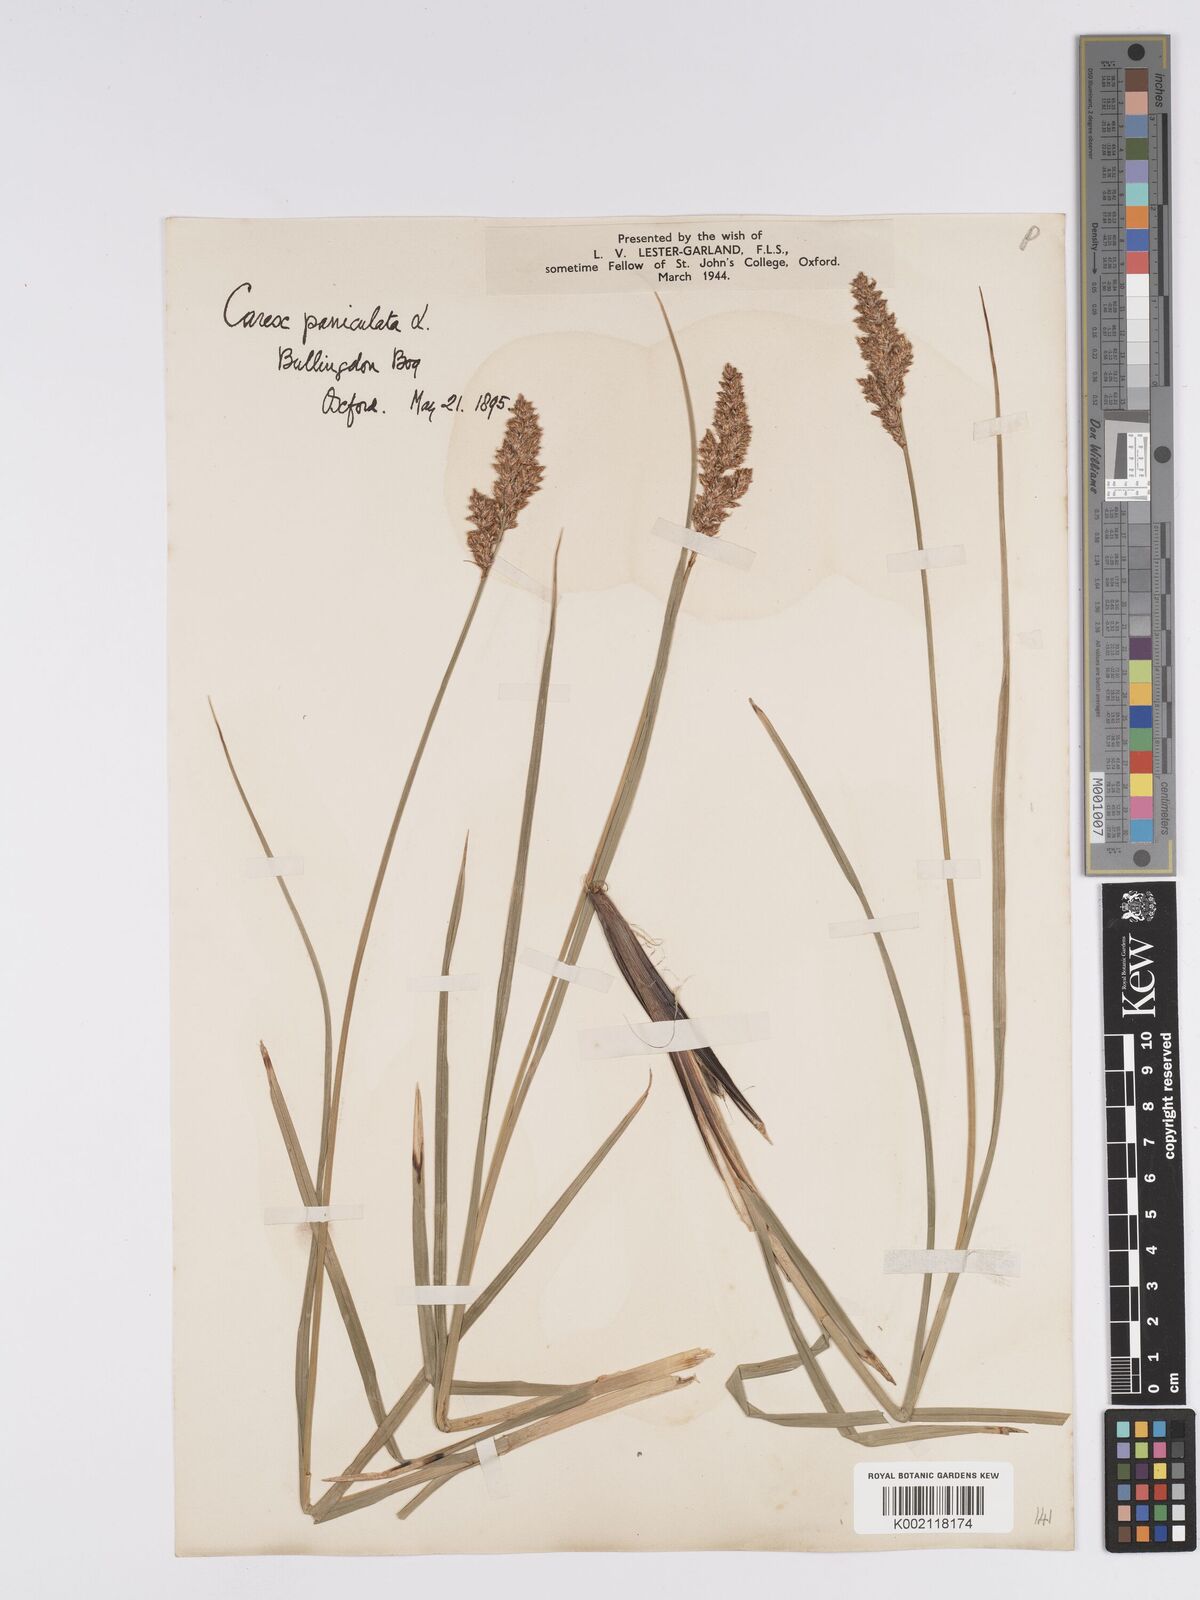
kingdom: Plantae
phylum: Tracheophyta
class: Liliopsida
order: Poales
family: Cyperaceae
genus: Carex
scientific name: Carex paniculata
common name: Greater tussock-sedge
